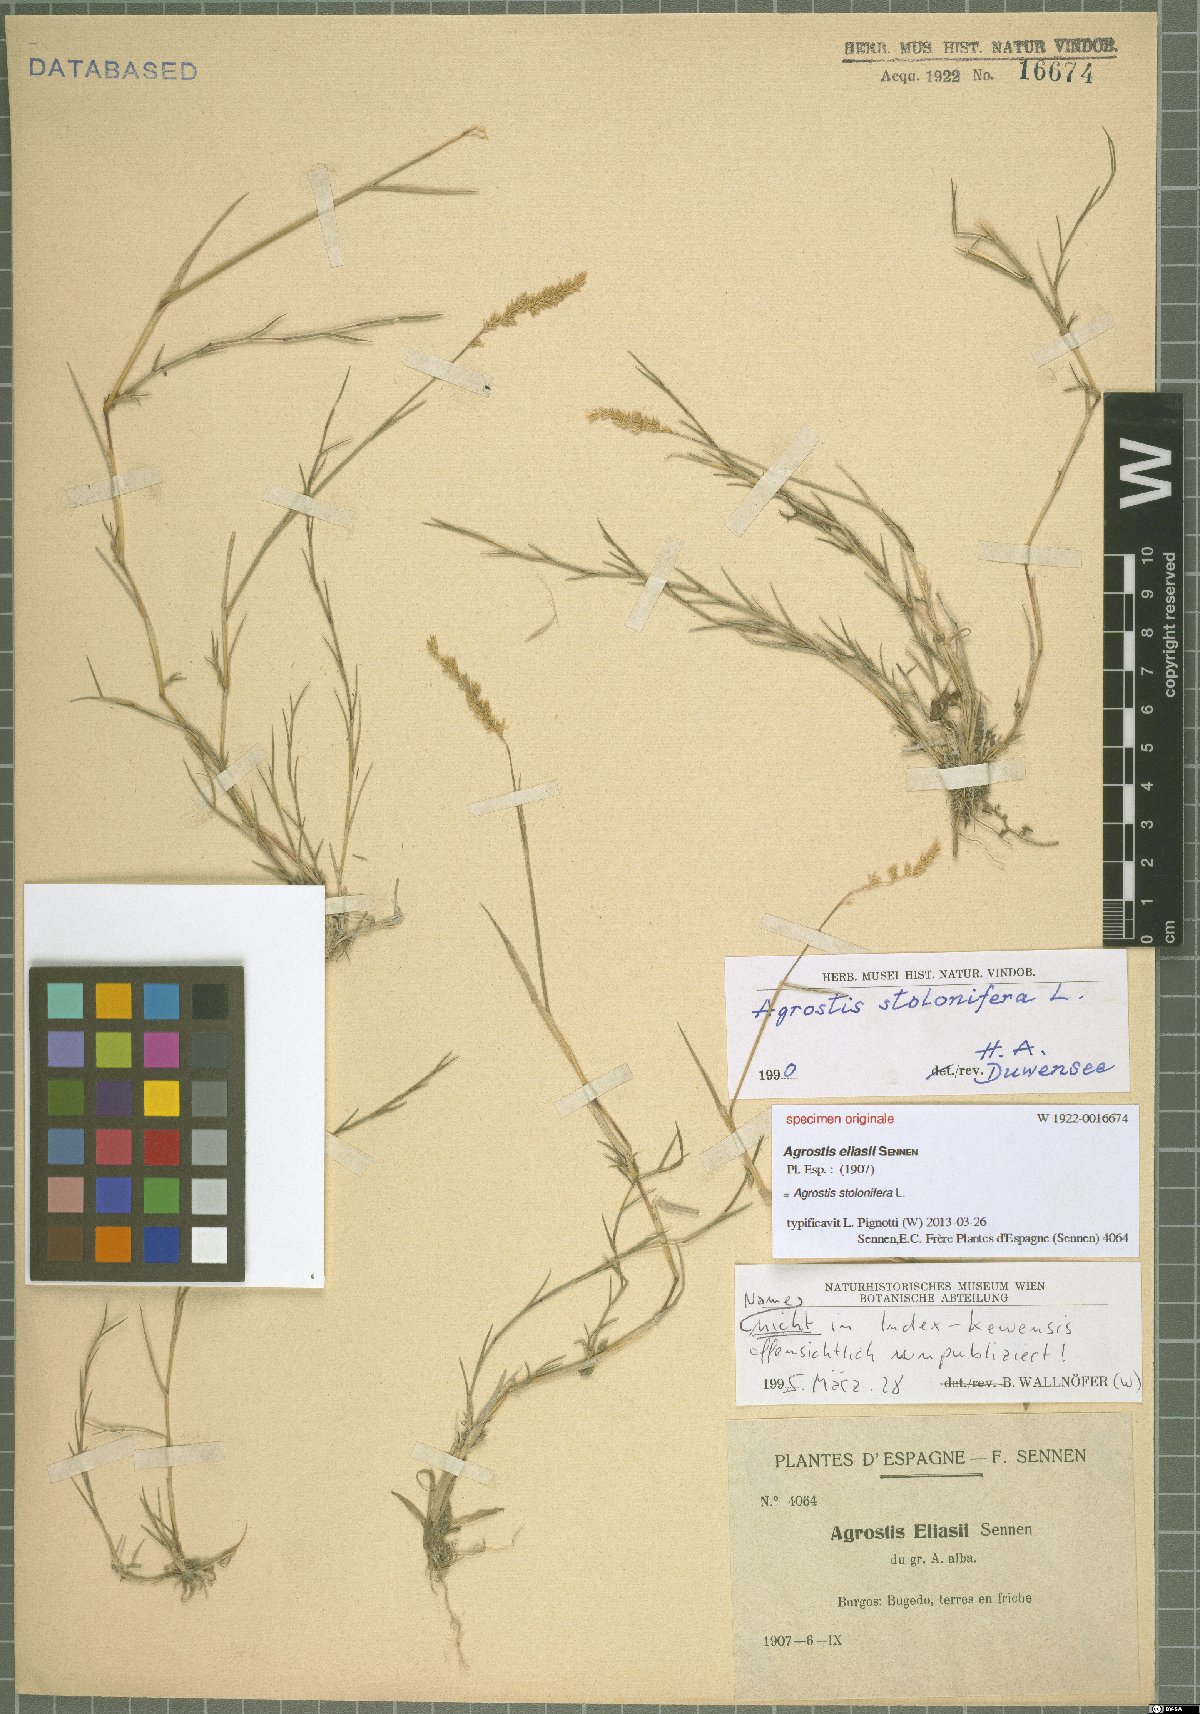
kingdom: Plantae
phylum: Tracheophyta
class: Liliopsida
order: Poales
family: Poaceae
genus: Agrostis
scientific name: Agrostis stolonifera
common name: Creeping bentgrass
